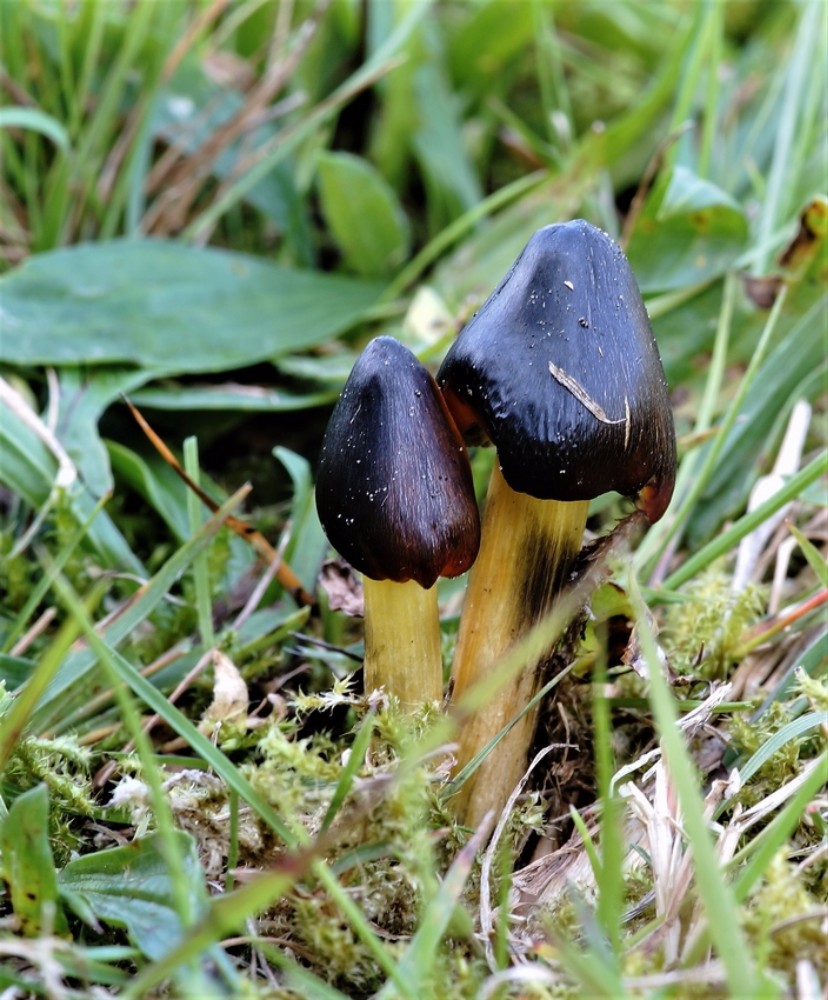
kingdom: Fungi
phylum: Basidiomycota
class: Agaricomycetes
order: Agaricales
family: Hygrophoraceae
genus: Hygrocybe
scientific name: Hygrocybe conica
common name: kegle-vokshat
